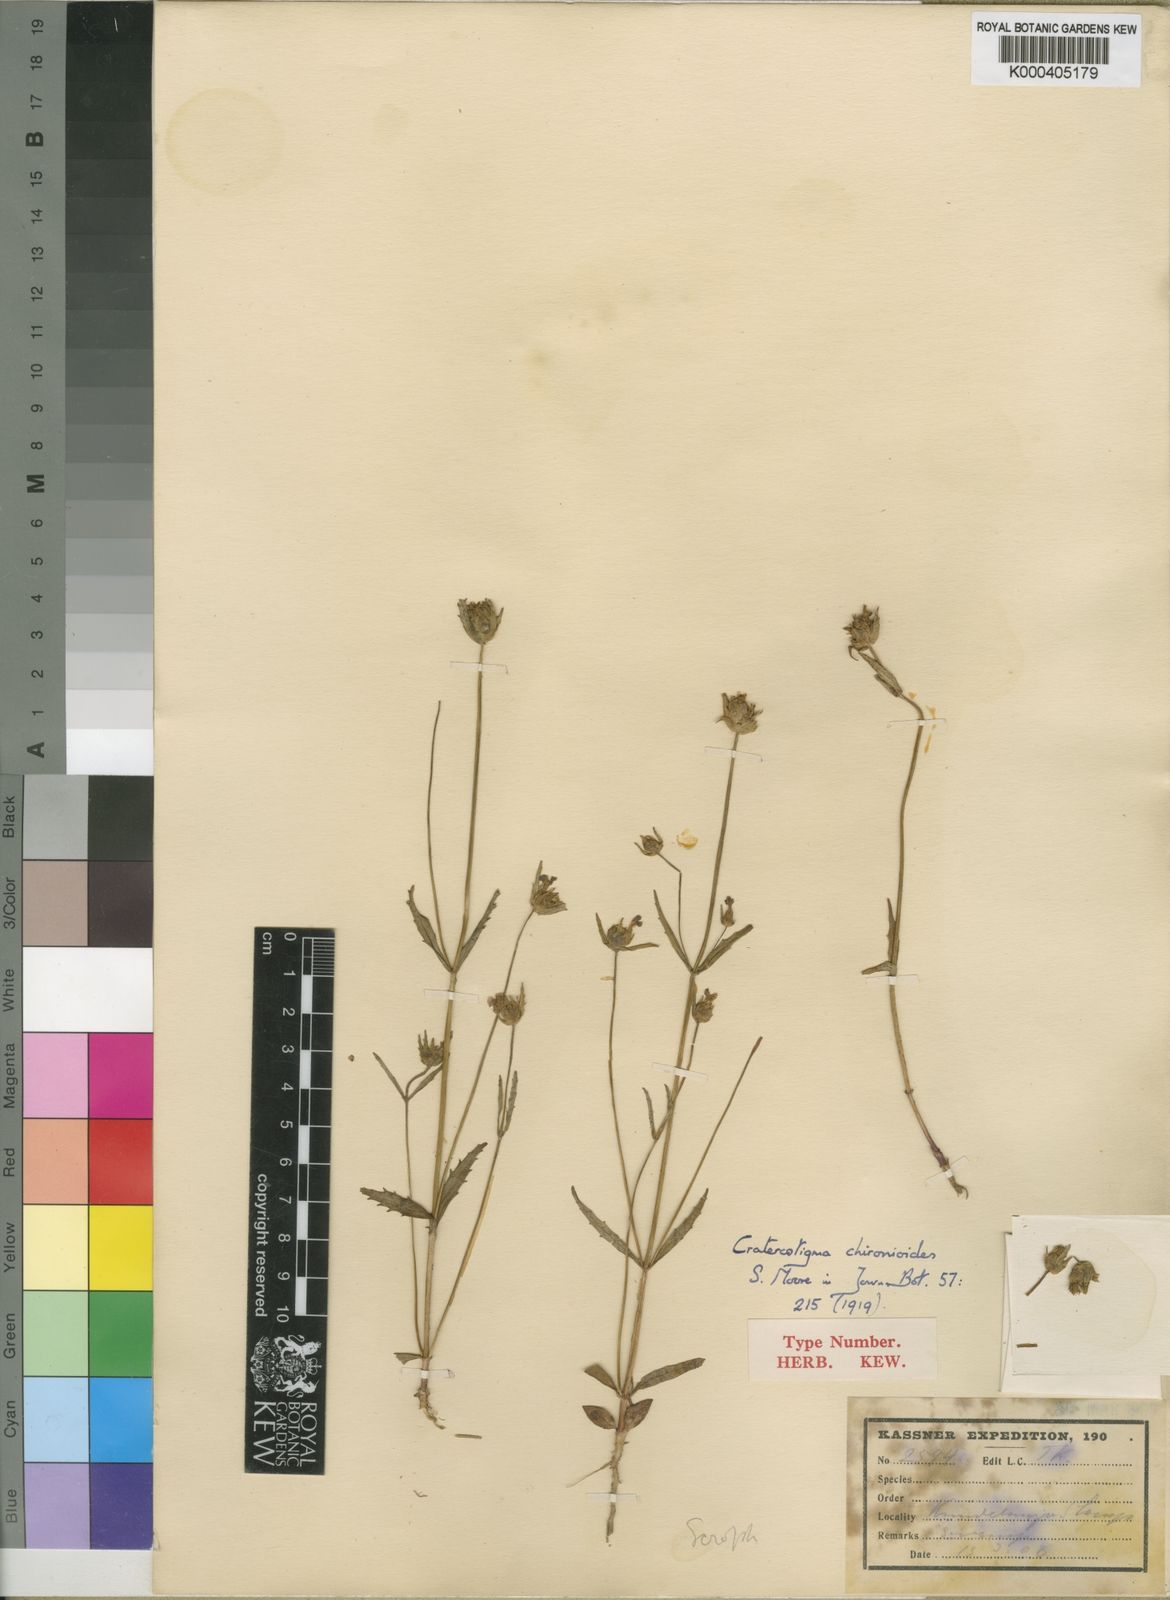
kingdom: Plantae
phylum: Tracheophyta
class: Magnoliopsida
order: Lamiales
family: Linderniaceae
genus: Crepidorhopalon
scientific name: Crepidorhopalon chironioides
